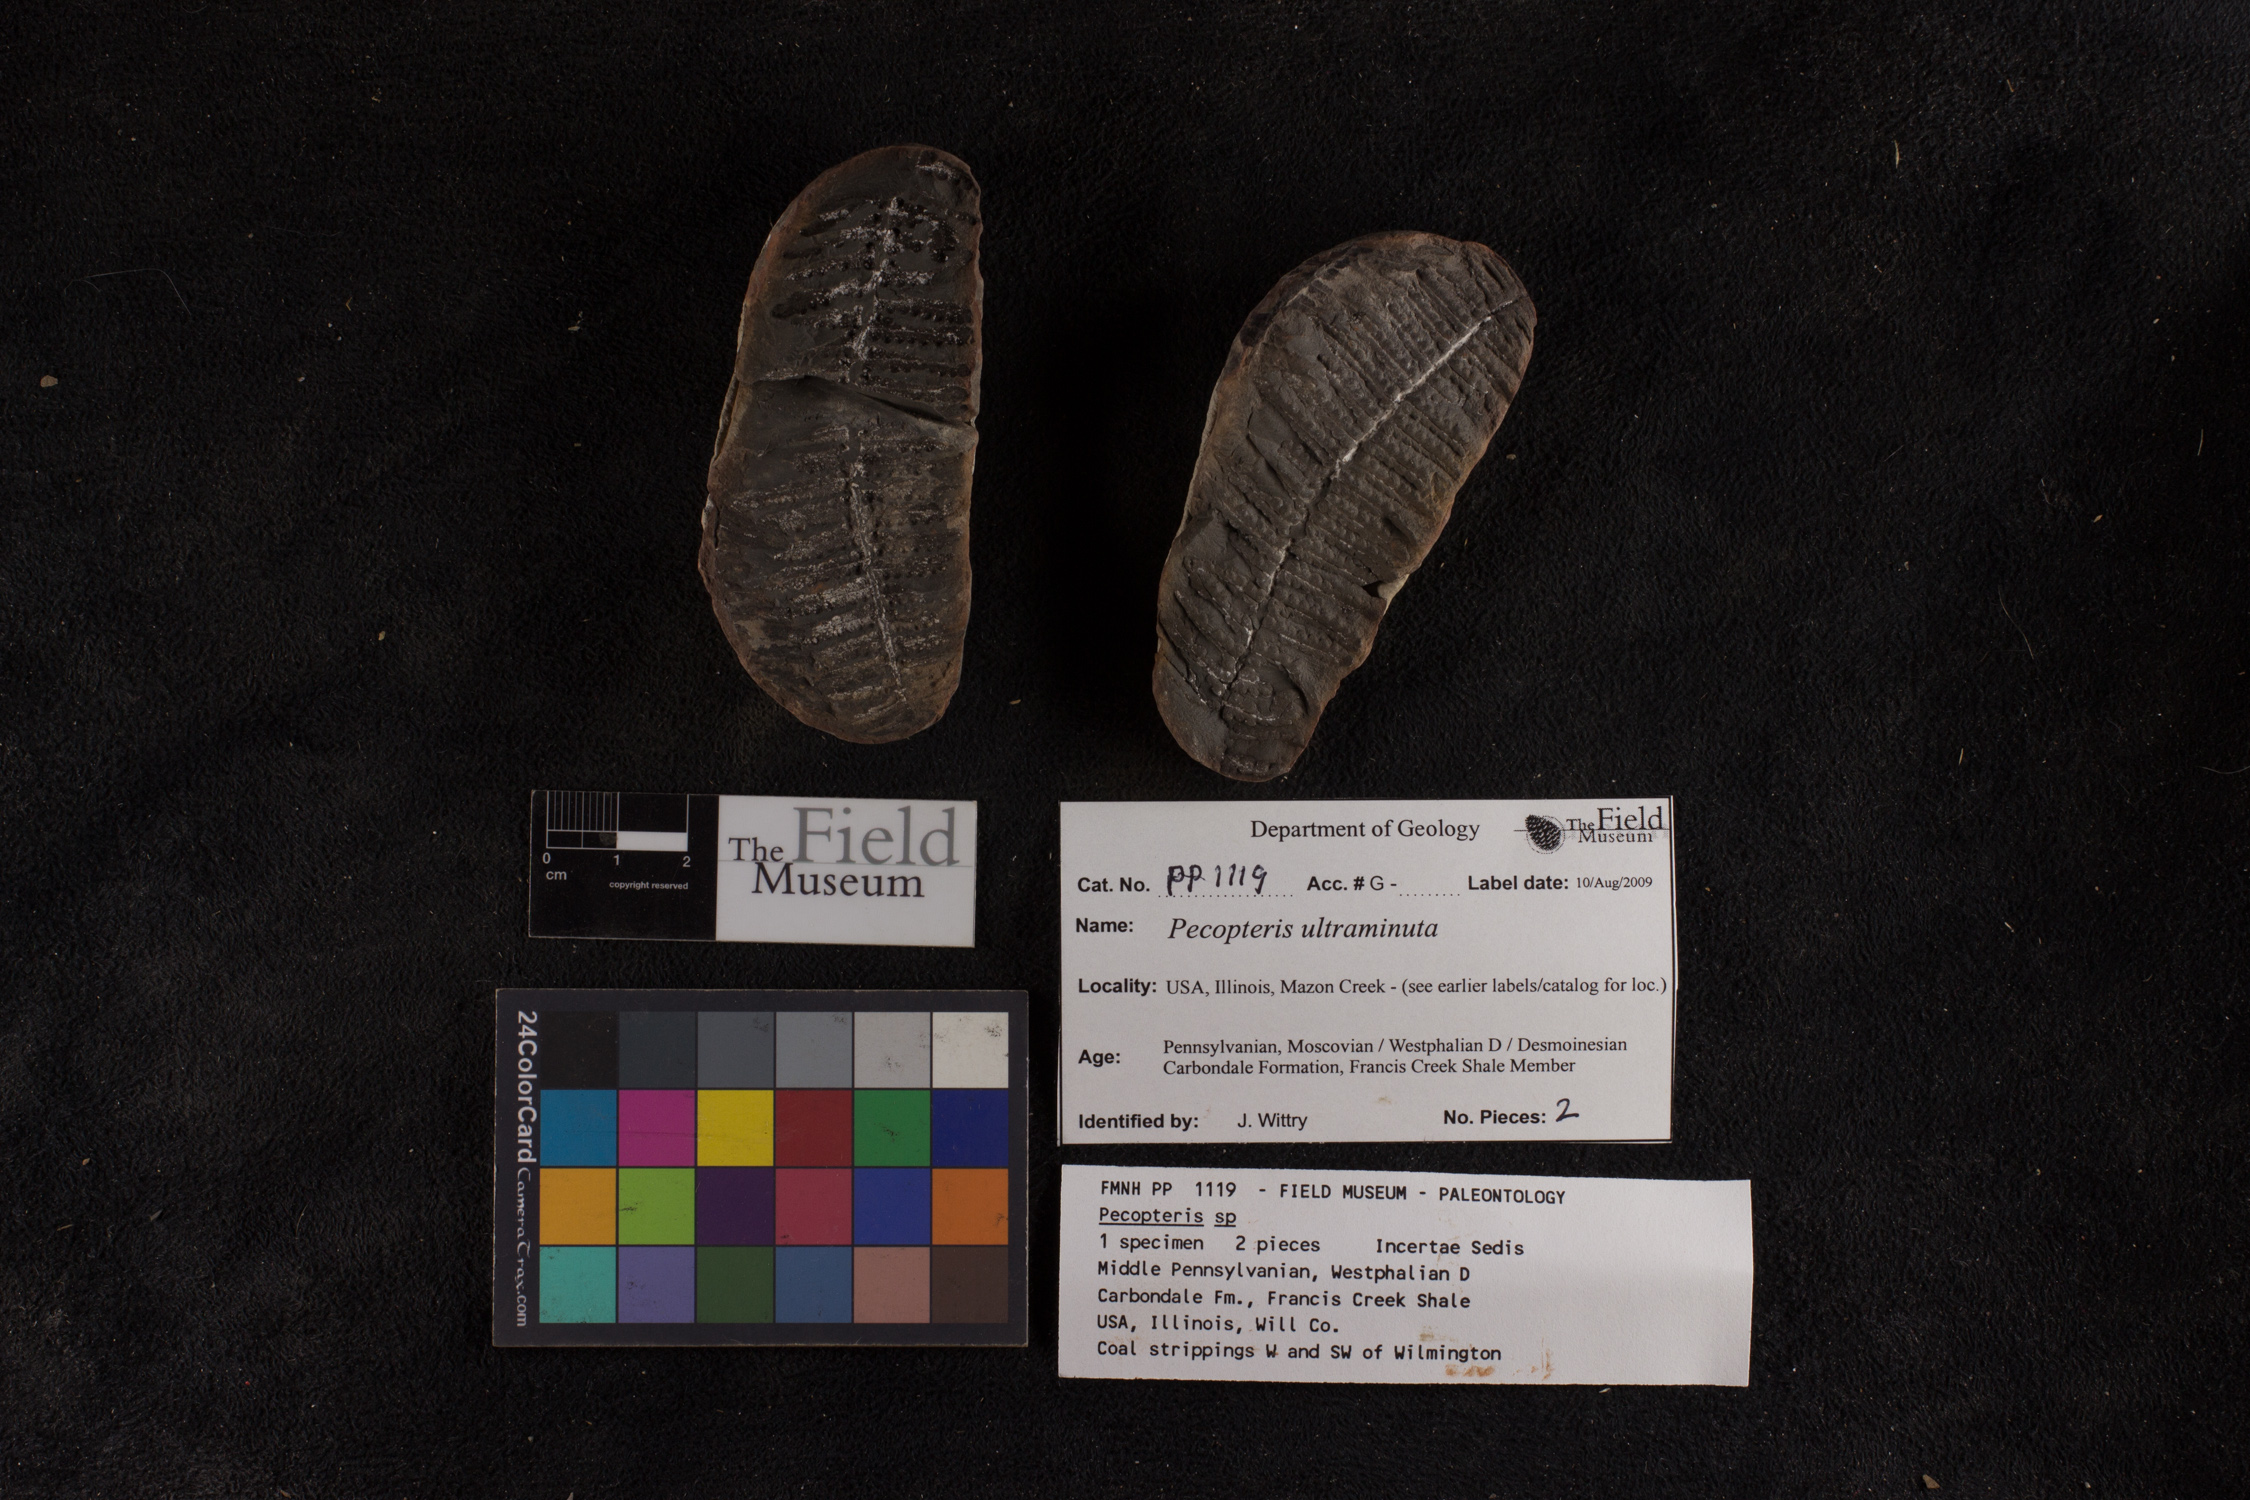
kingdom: Plantae
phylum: Tracheophyta
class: Polypodiopsida
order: Marattiales
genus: Cyathocarpus
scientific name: Cyathocarpus
